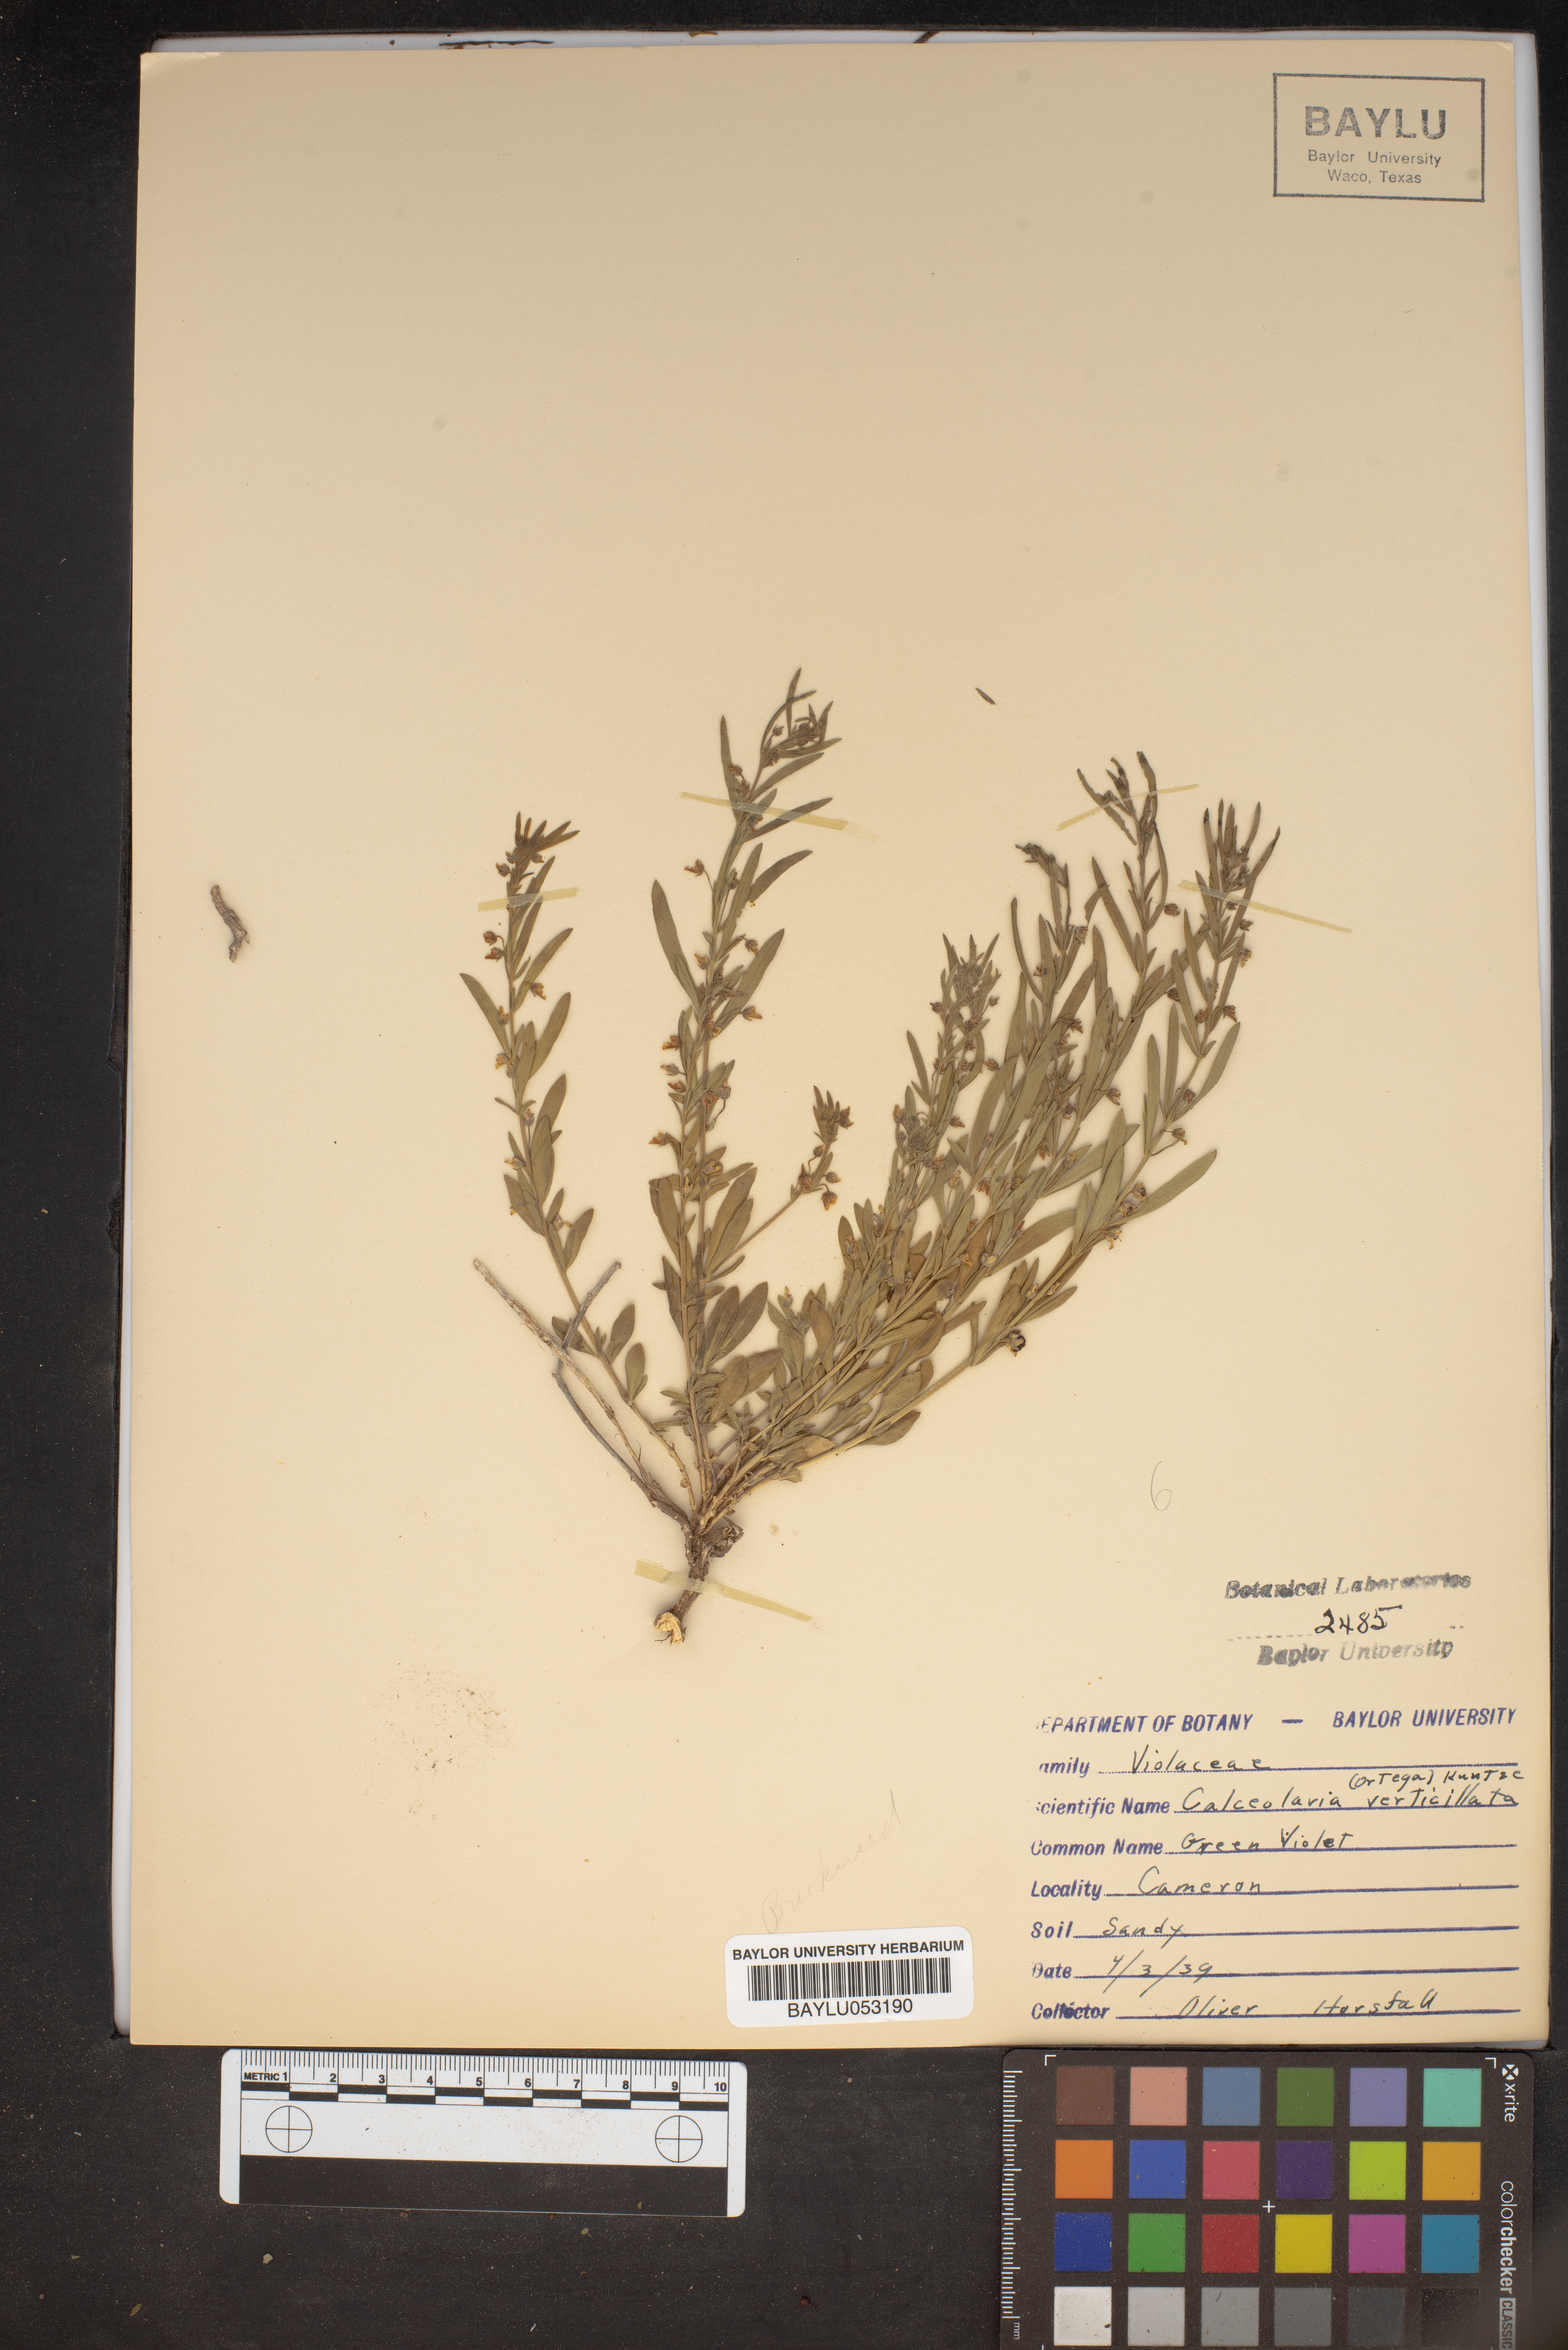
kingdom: Plantae
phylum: Tracheophyta
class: Magnoliopsida
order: Malpighiales
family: Violaceae
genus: Pombalia
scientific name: Pombalia verticillata
